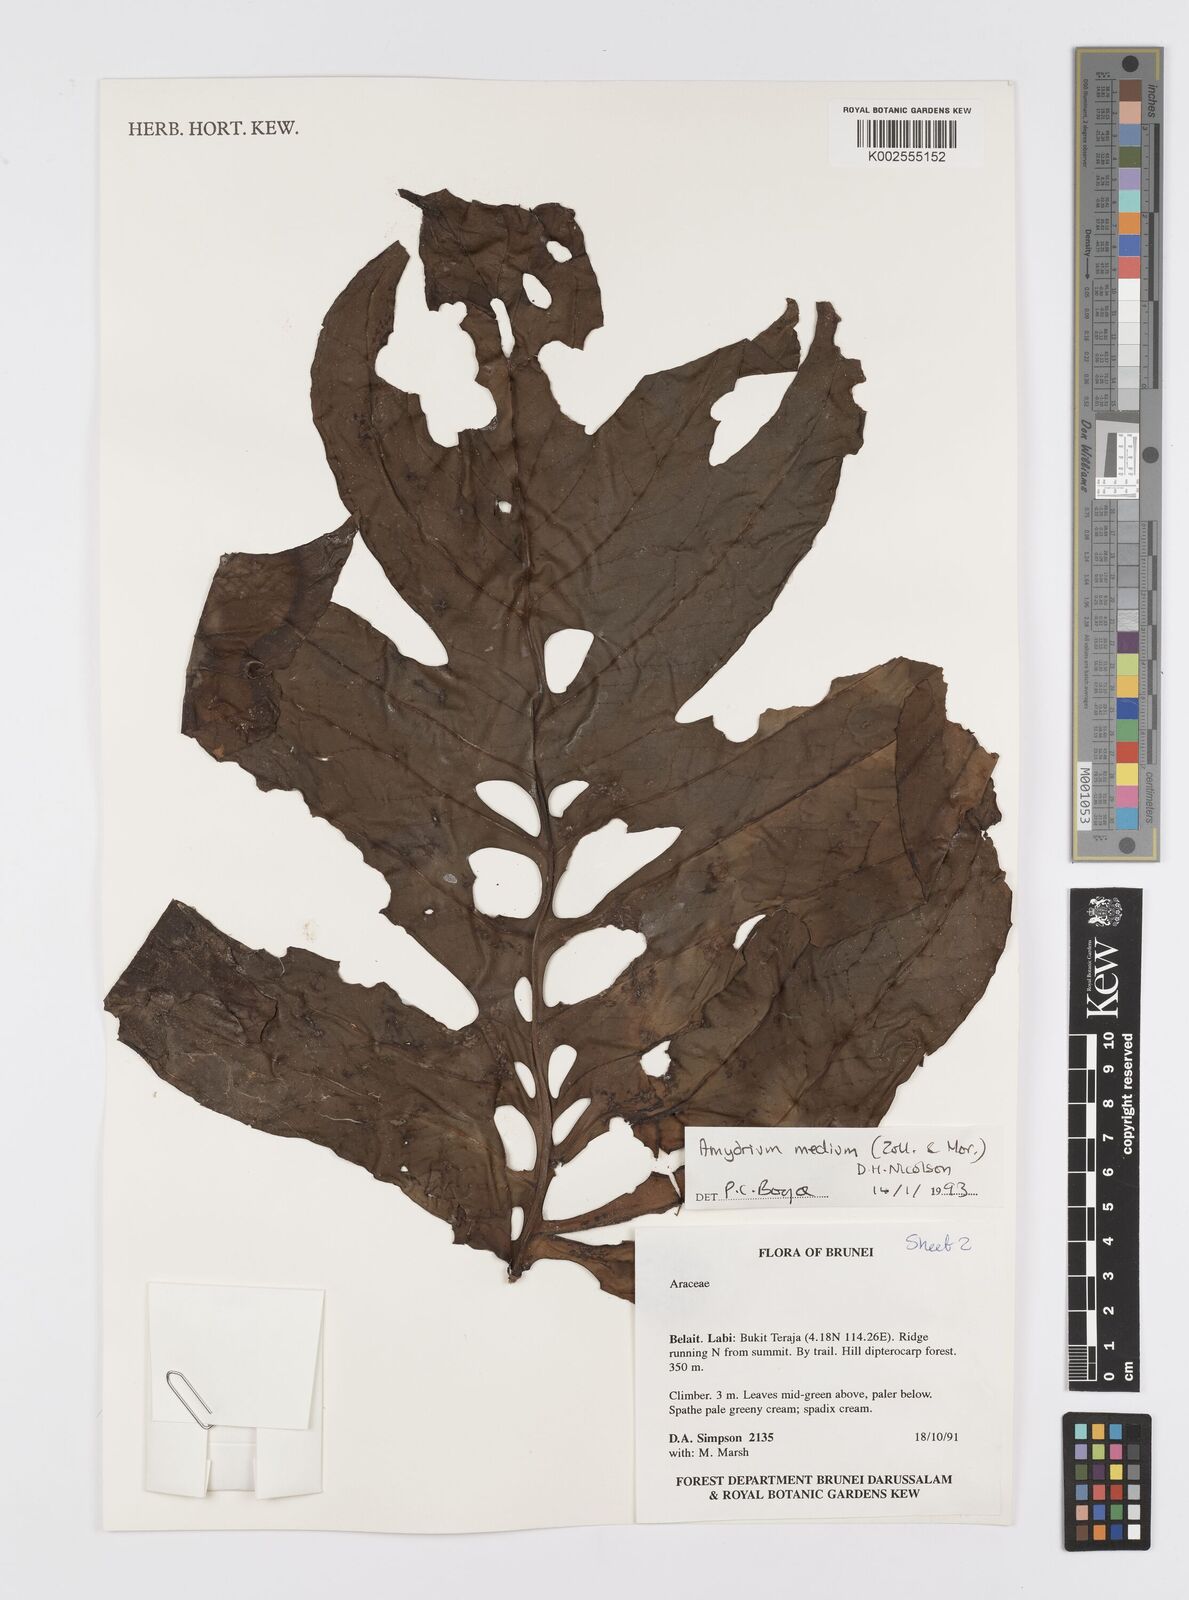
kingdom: Plantae
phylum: Tracheophyta
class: Liliopsida
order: Alismatales
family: Araceae
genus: Amydrium
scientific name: Amydrium medium
